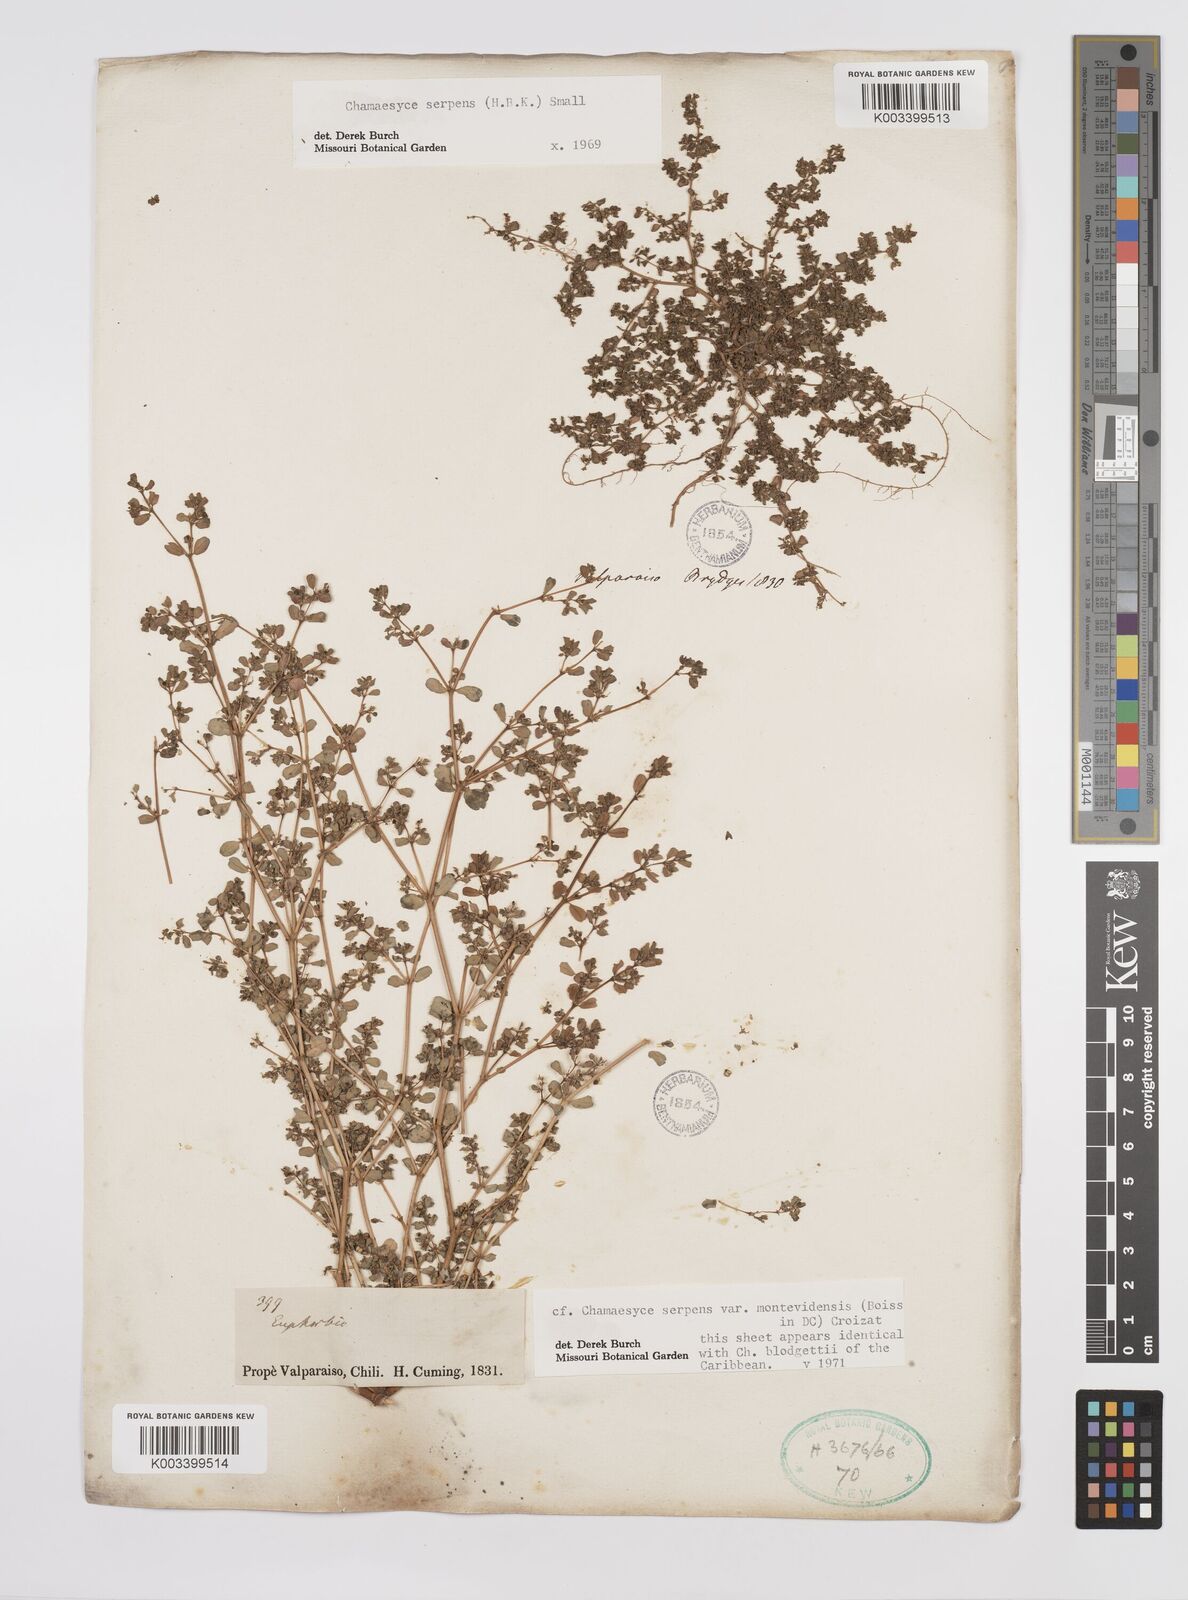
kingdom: Plantae
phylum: Tracheophyta
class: Magnoliopsida
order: Malpighiales
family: Euphorbiaceae
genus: Euphorbia
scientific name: Euphorbia
